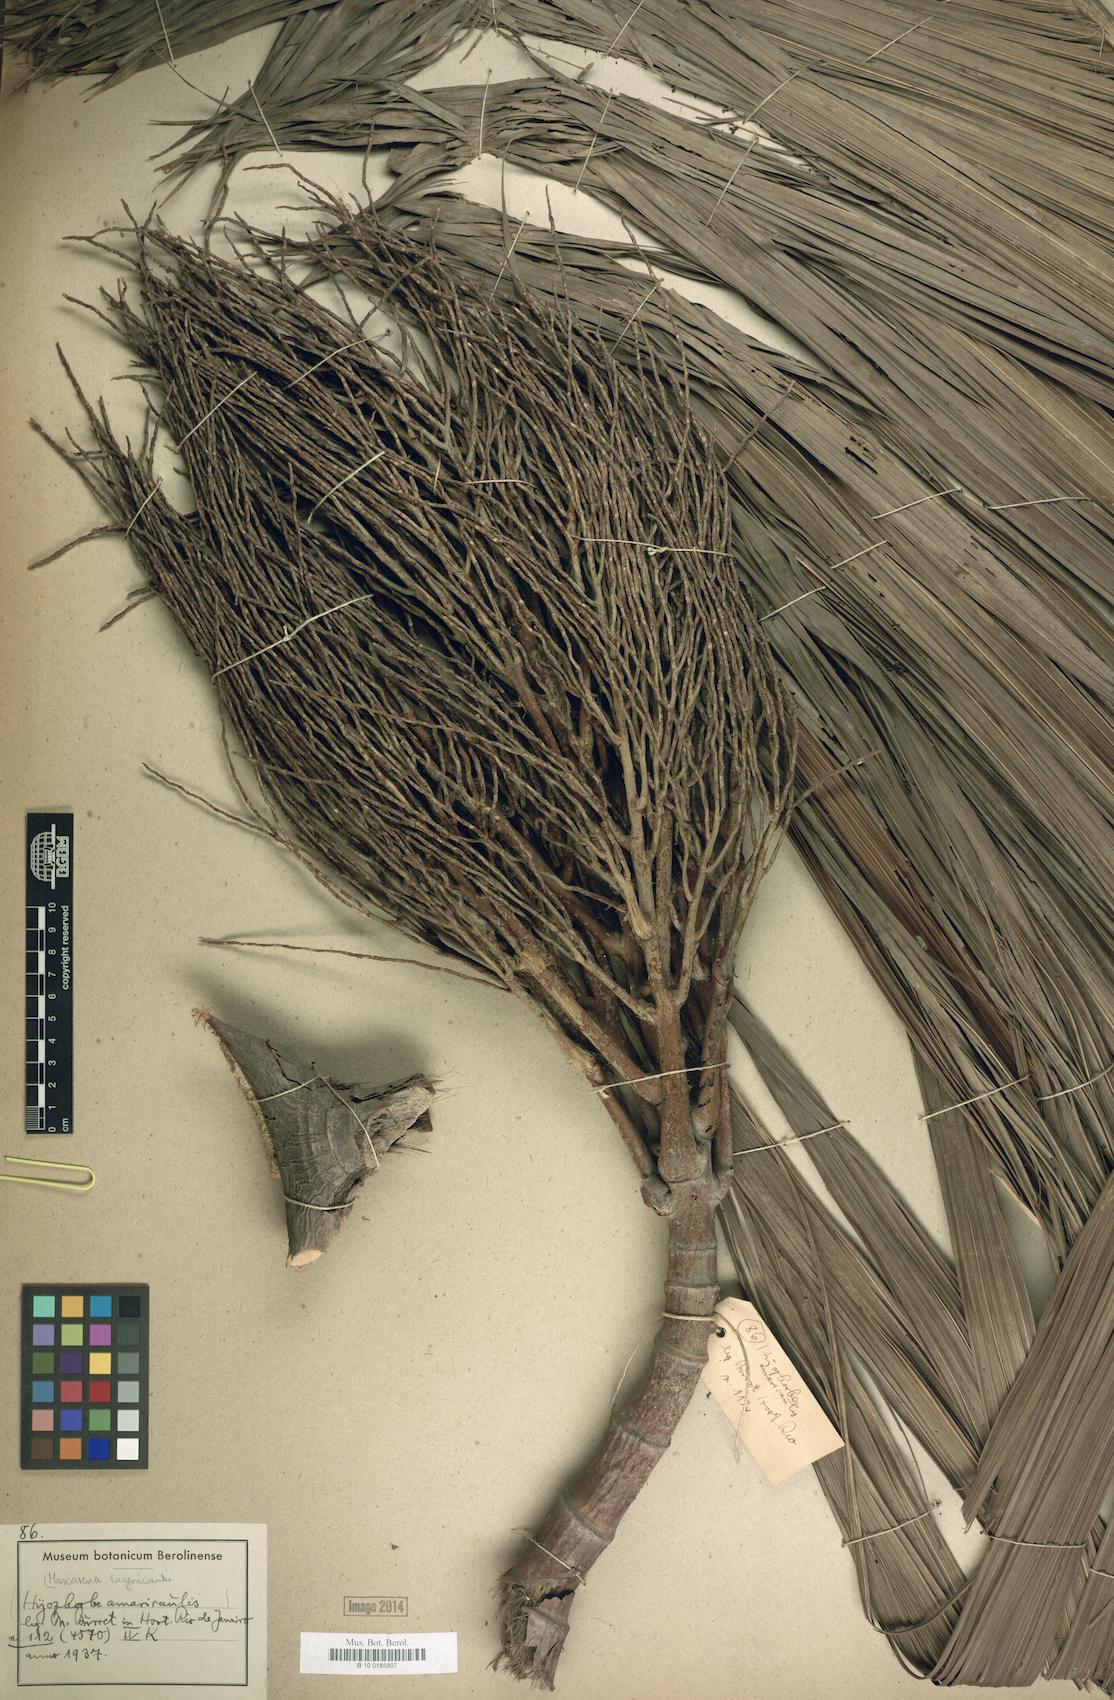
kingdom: Plantae
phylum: Tracheophyta
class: Liliopsida
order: Arecales
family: Arecaceae
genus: Hyophorbe
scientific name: Hyophorbe lagenicaulis
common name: Bottle palm
